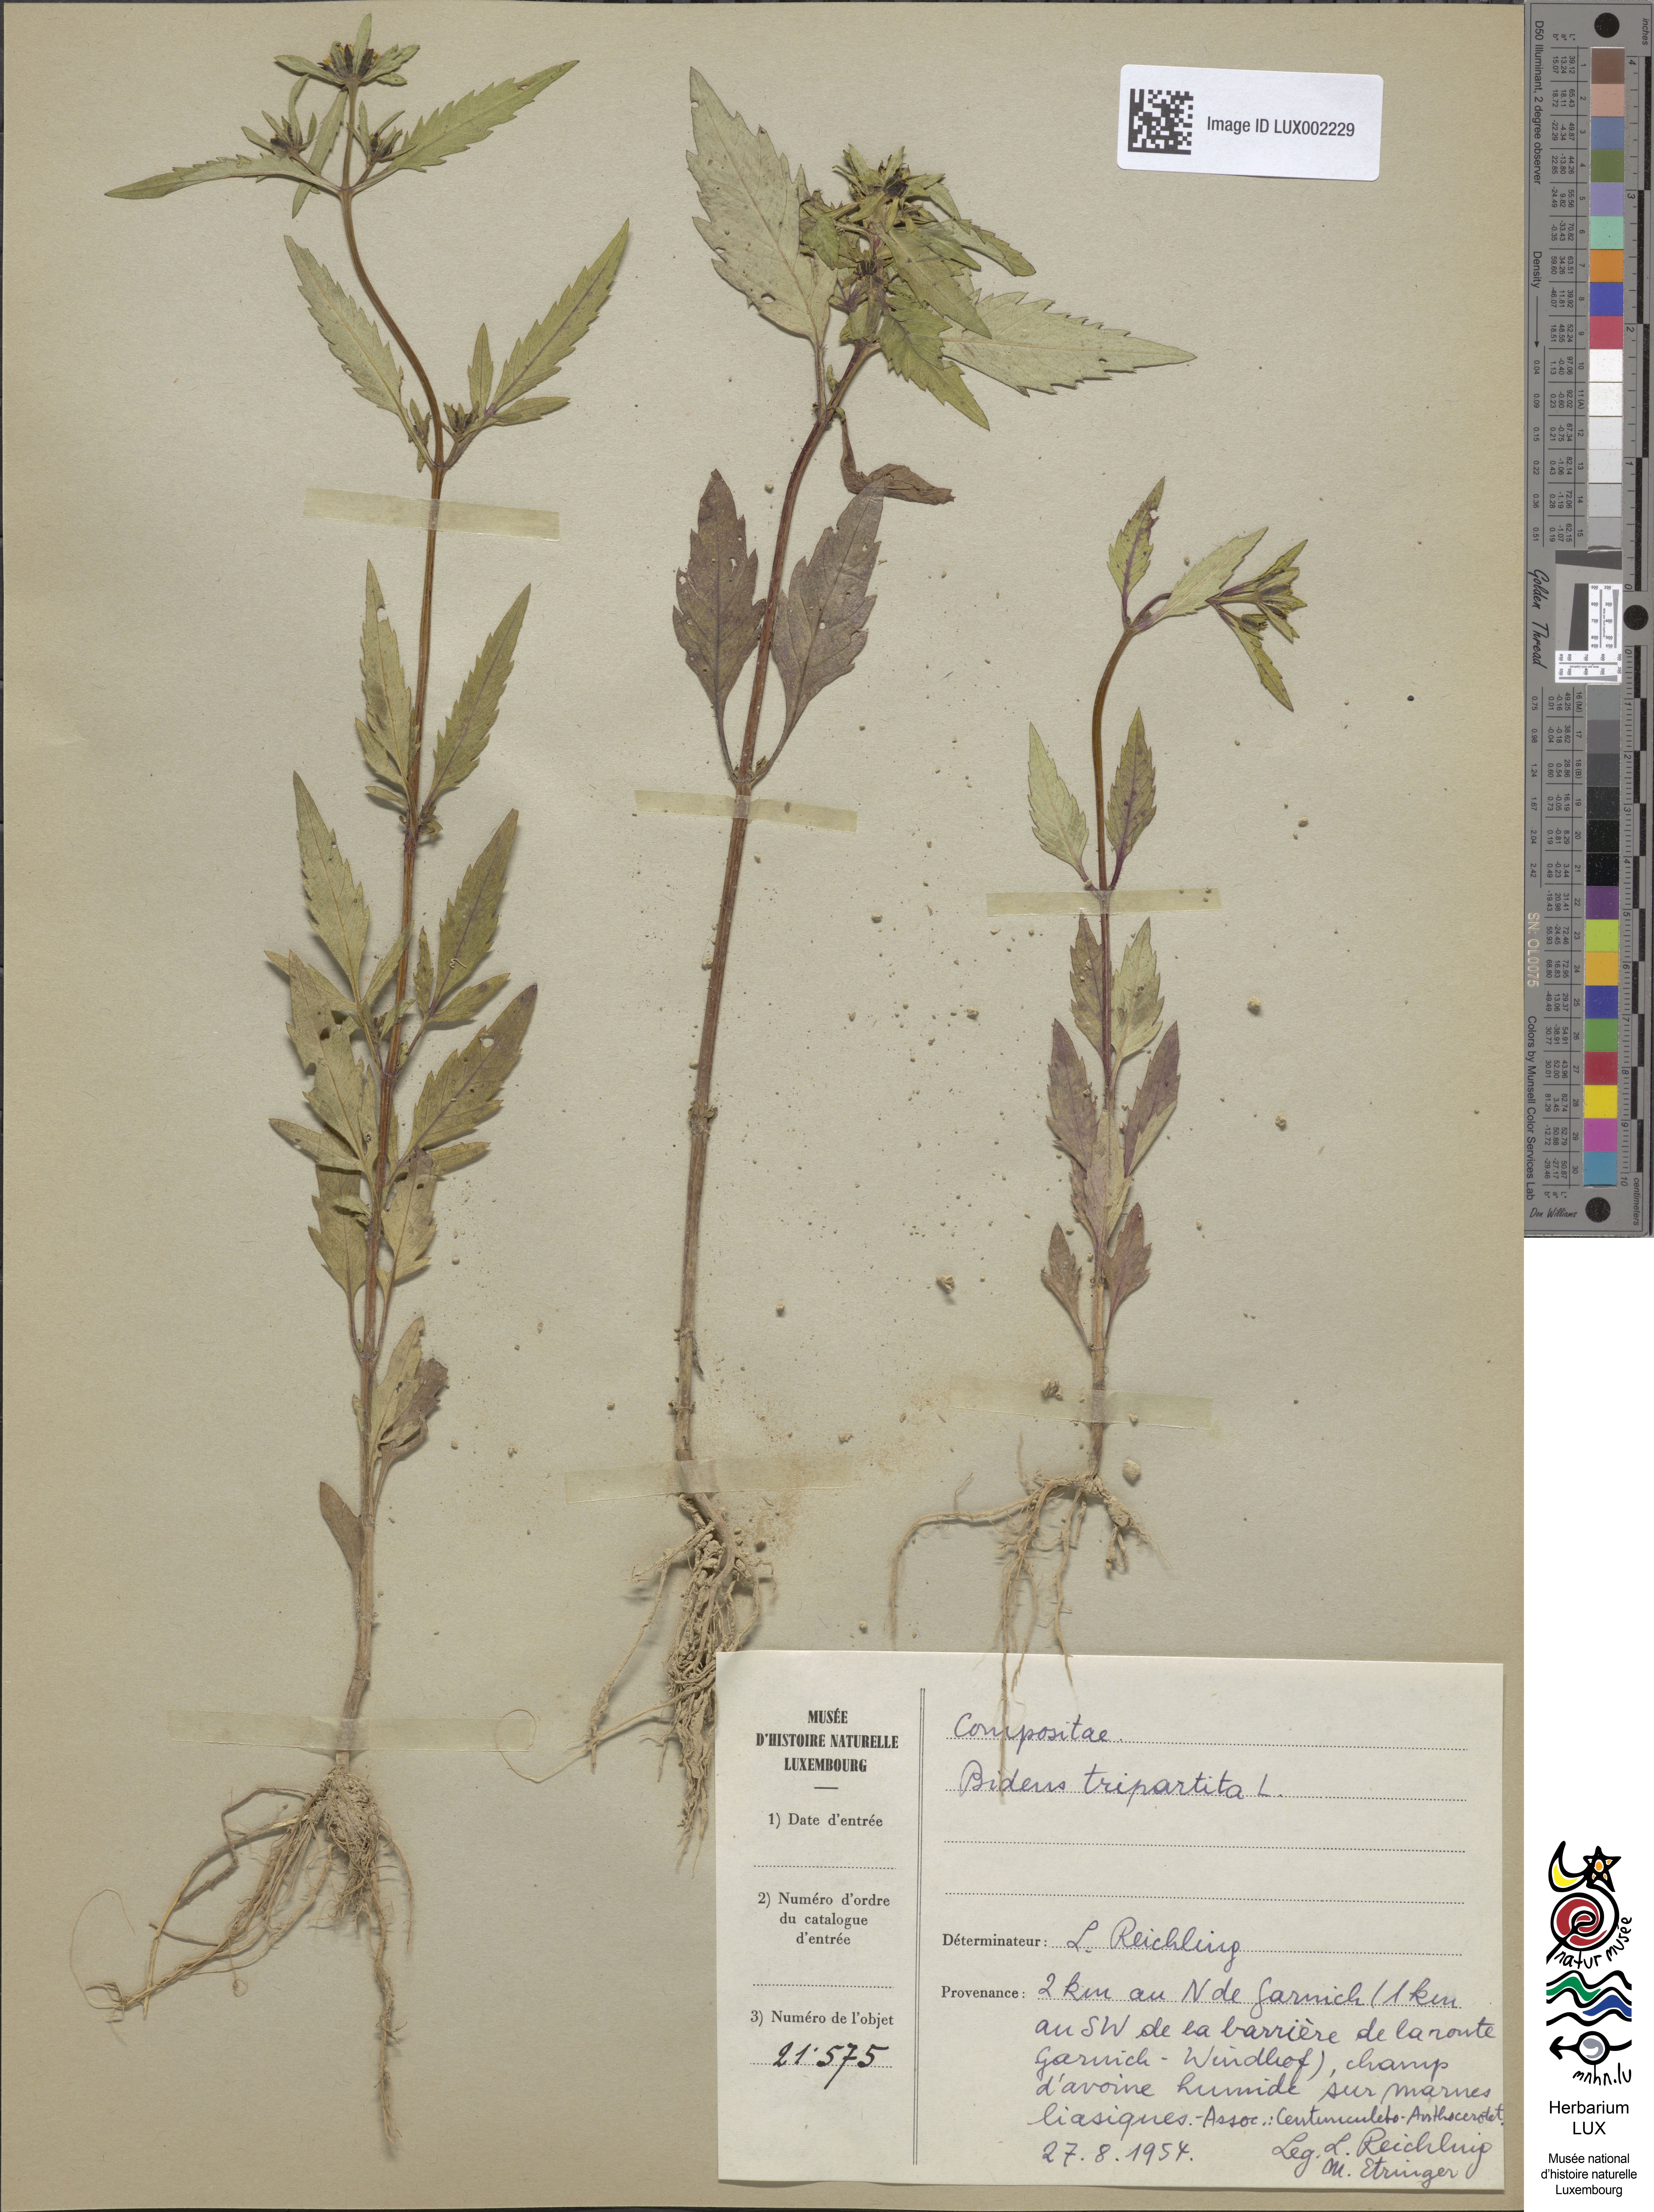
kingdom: Plantae
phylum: Tracheophyta
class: Magnoliopsida
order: Asterales
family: Asteraceae
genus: Bidens
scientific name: Bidens tripartita
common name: Trifid bur-marigold
